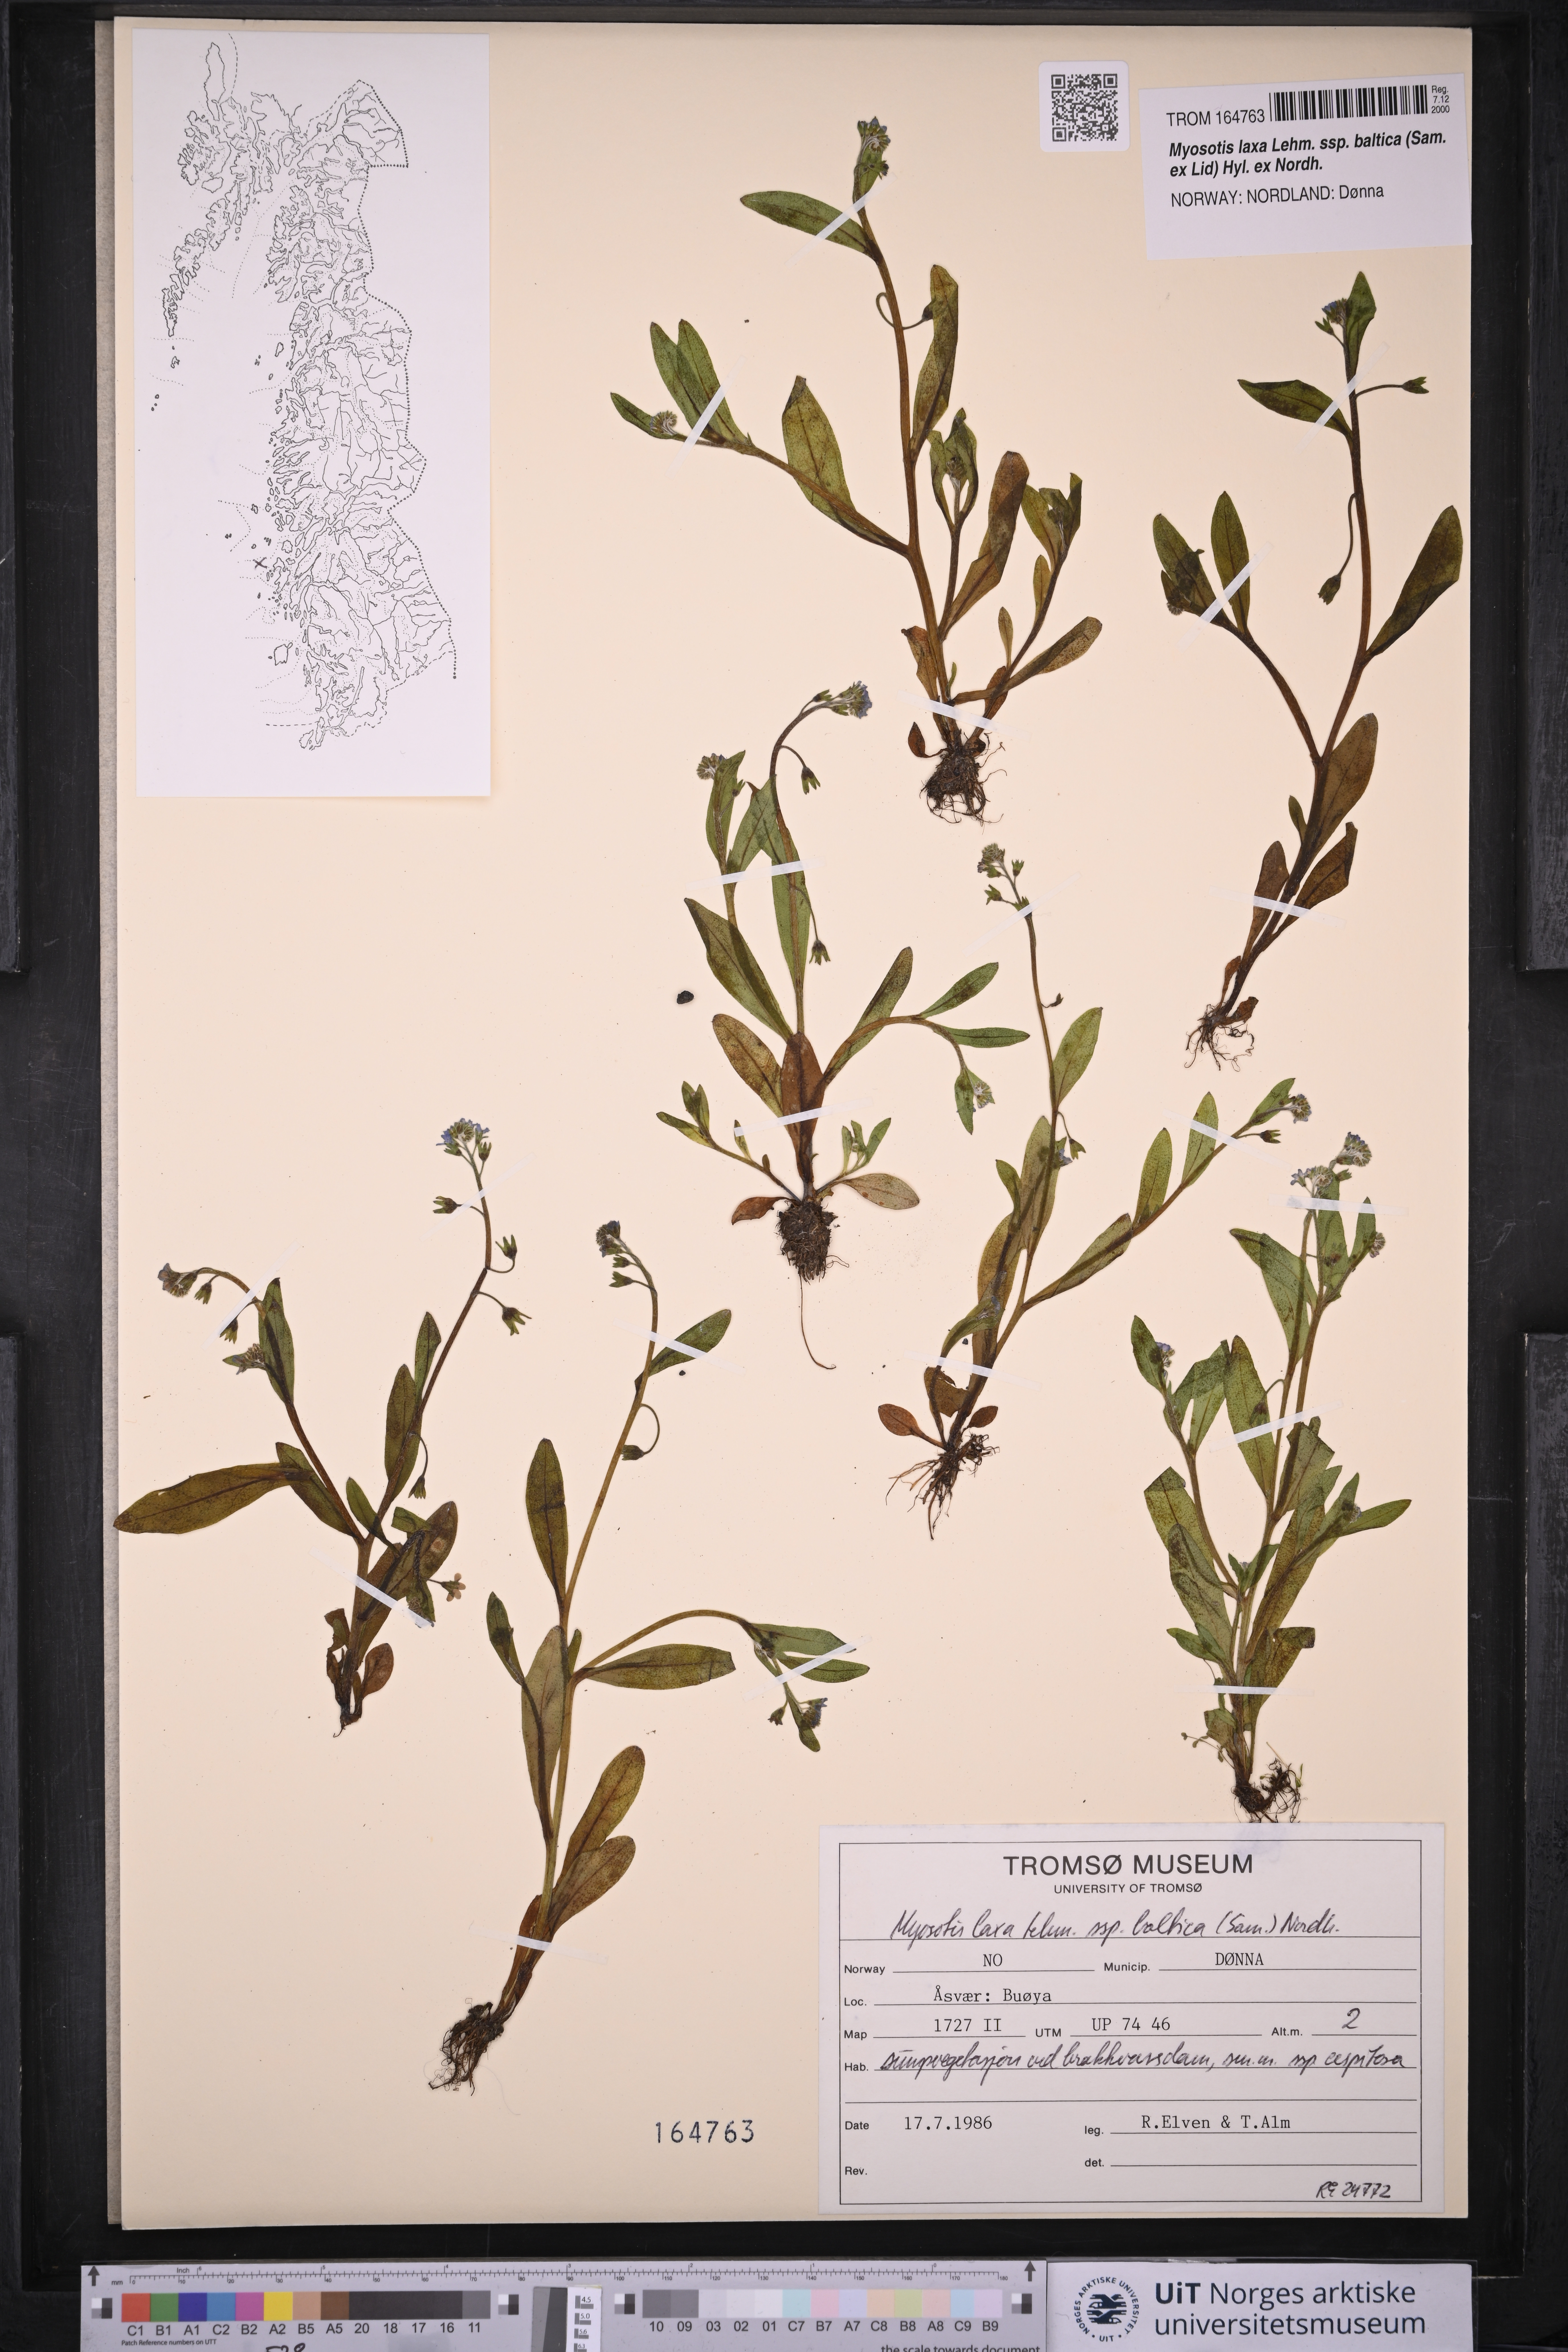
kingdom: Plantae
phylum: Tracheophyta
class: Magnoliopsida
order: Boraginales
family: Boraginaceae
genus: Myosotis
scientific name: Myosotis laxa
